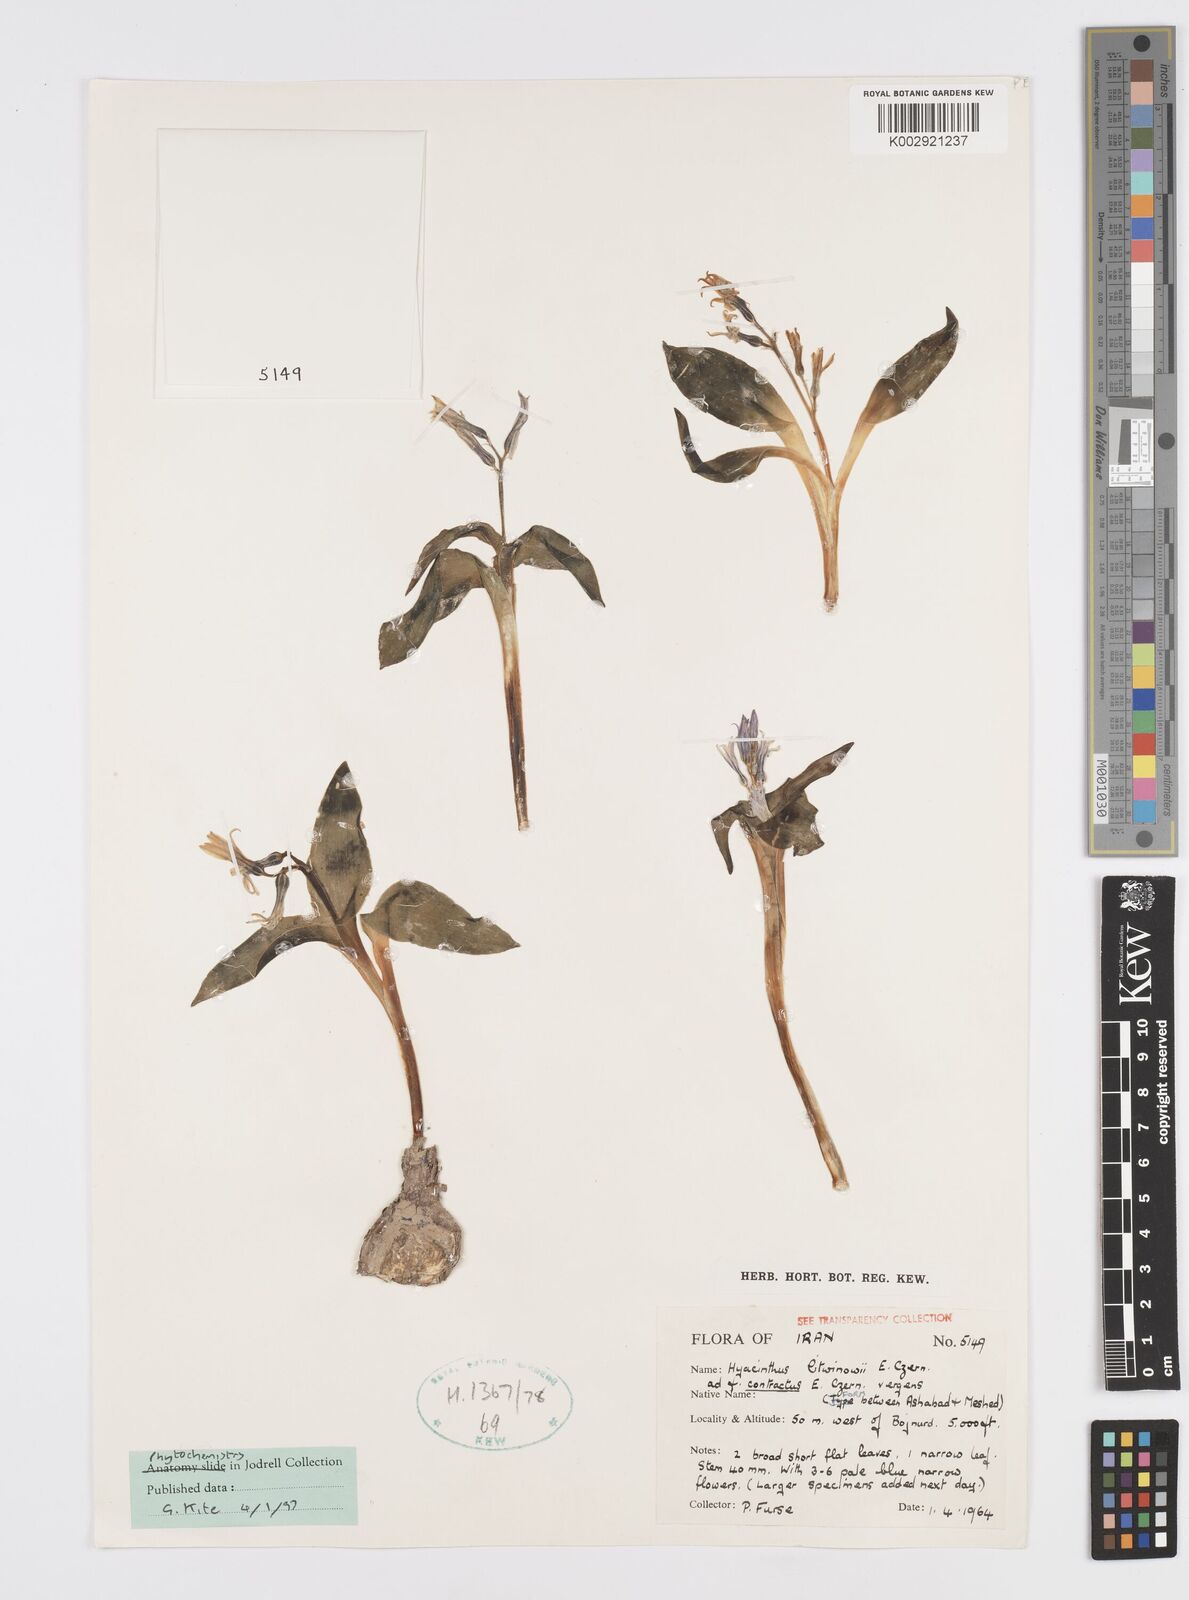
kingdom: Plantae
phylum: Tracheophyta
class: Liliopsida
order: Asparagales
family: Asparagaceae
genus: Hyacinthus
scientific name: Hyacinthus litwinowii
